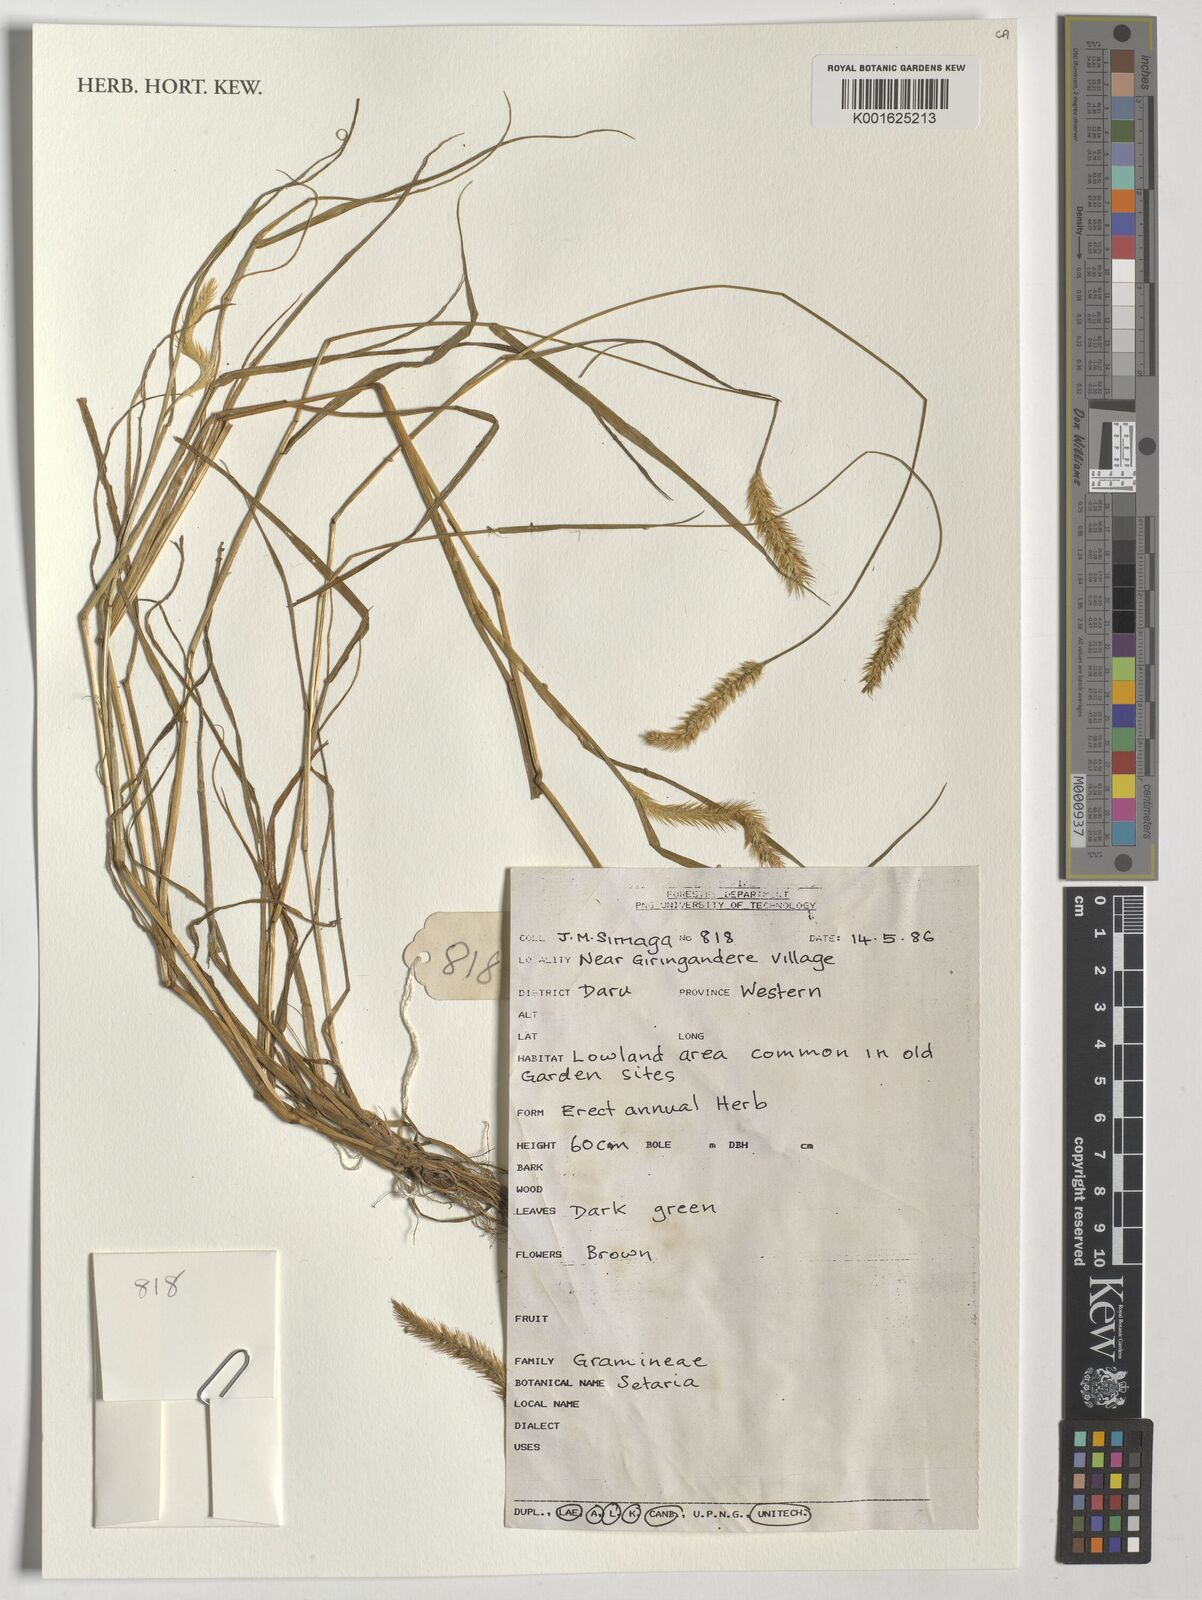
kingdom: Plantae
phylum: Tracheophyta
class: Liliopsida
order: Poales
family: Poaceae
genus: Setaria
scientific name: Setaria
